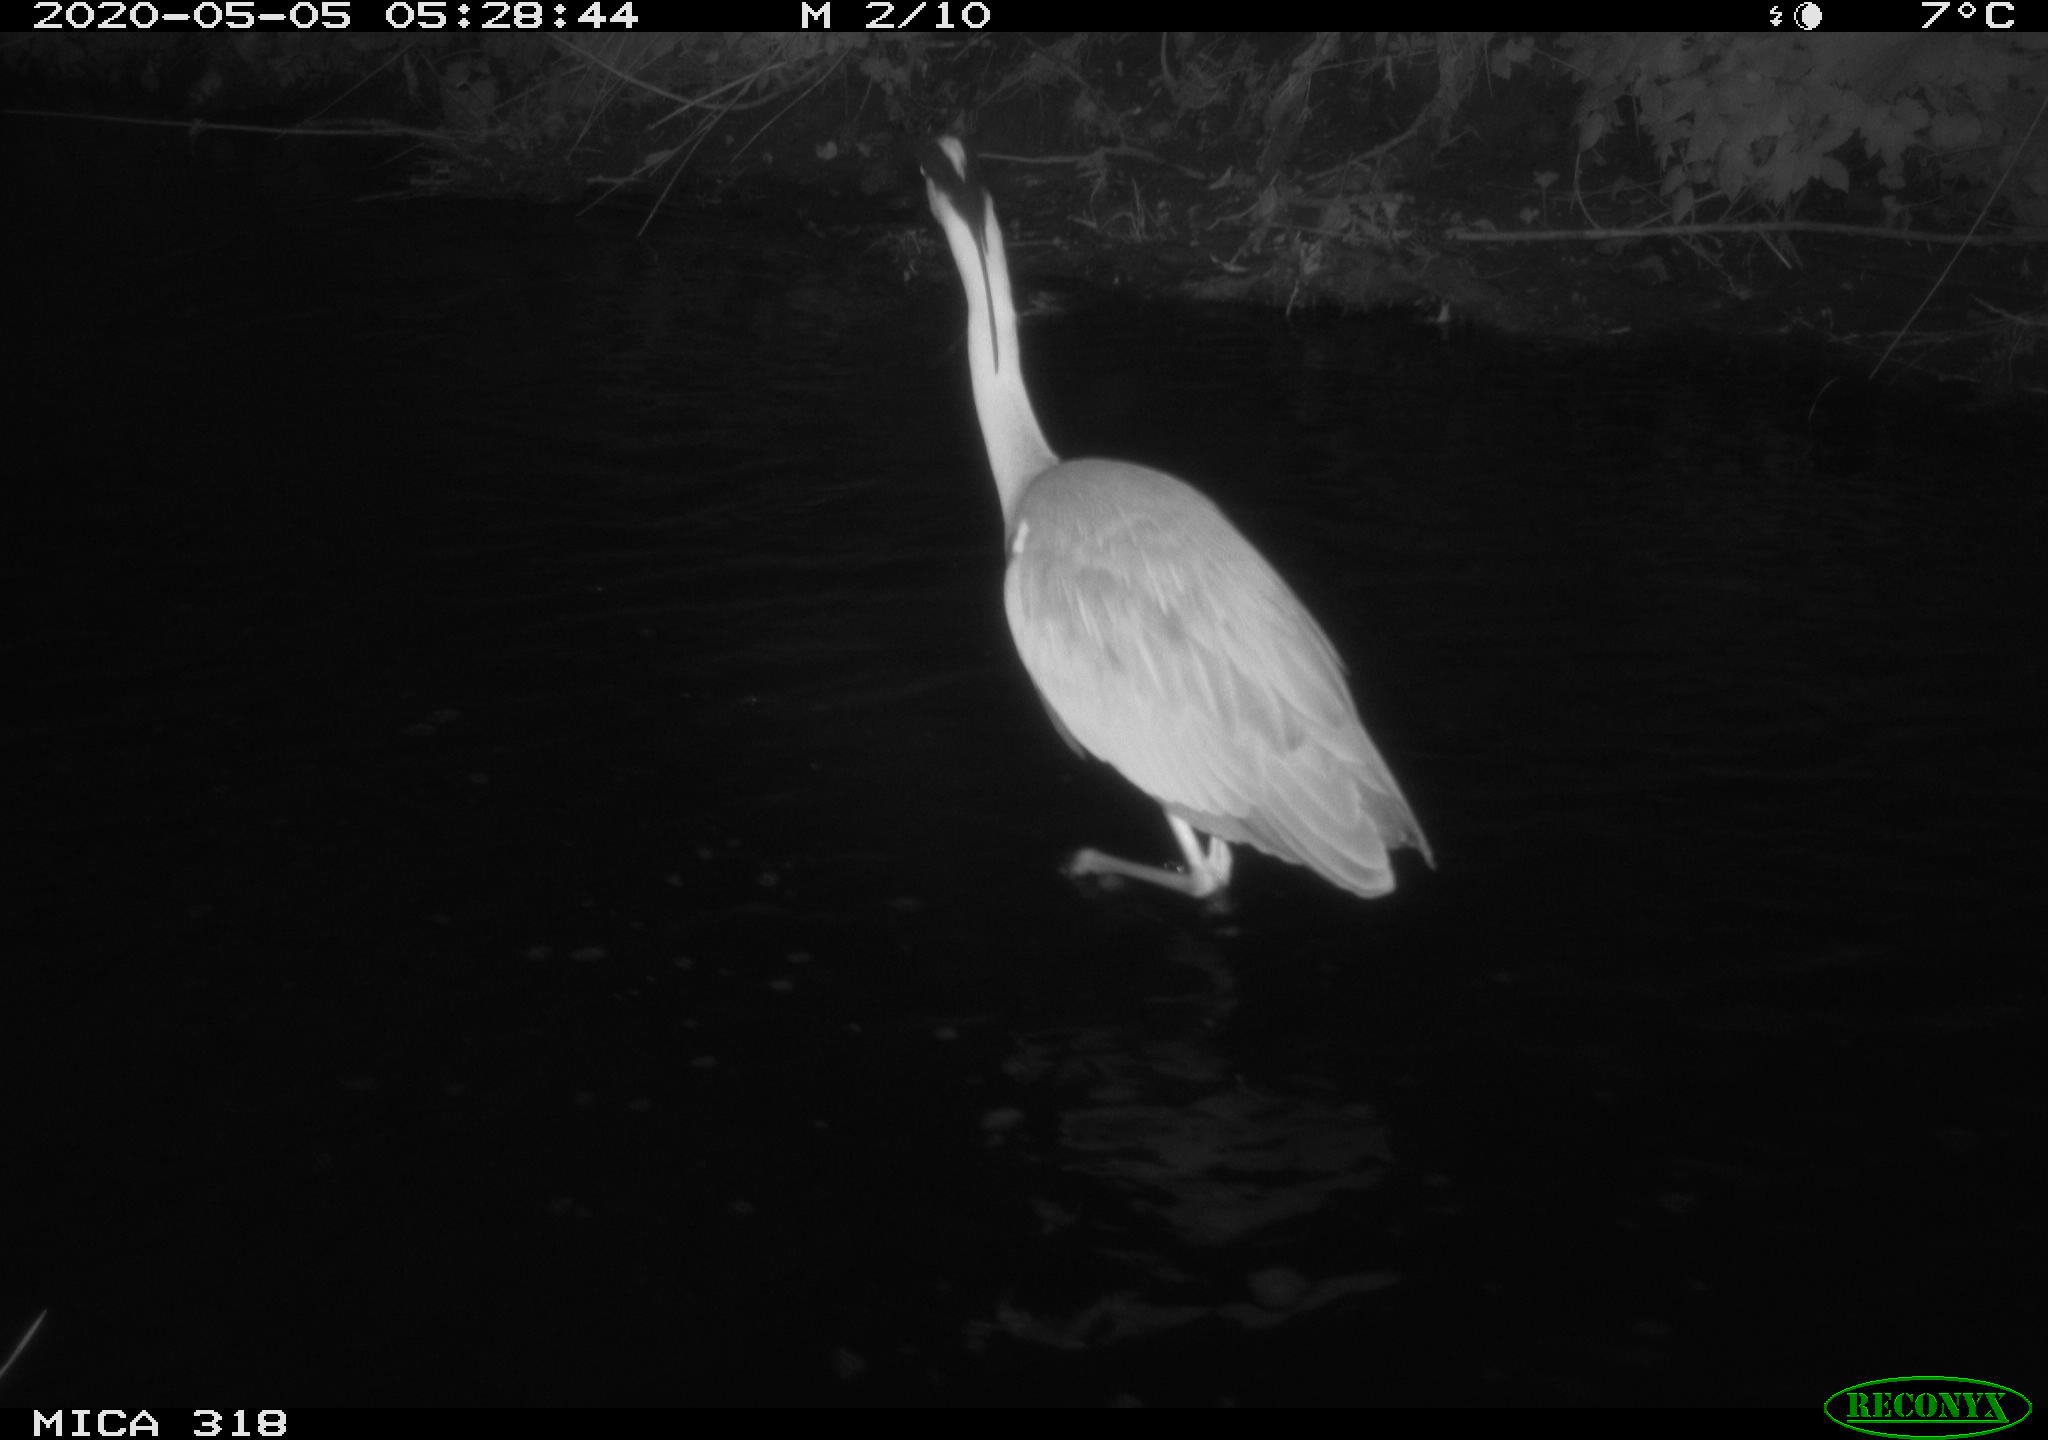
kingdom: Animalia
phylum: Chordata
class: Aves
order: Pelecaniformes
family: Ardeidae
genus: Ardea
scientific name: Ardea cinerea
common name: Grey heron
